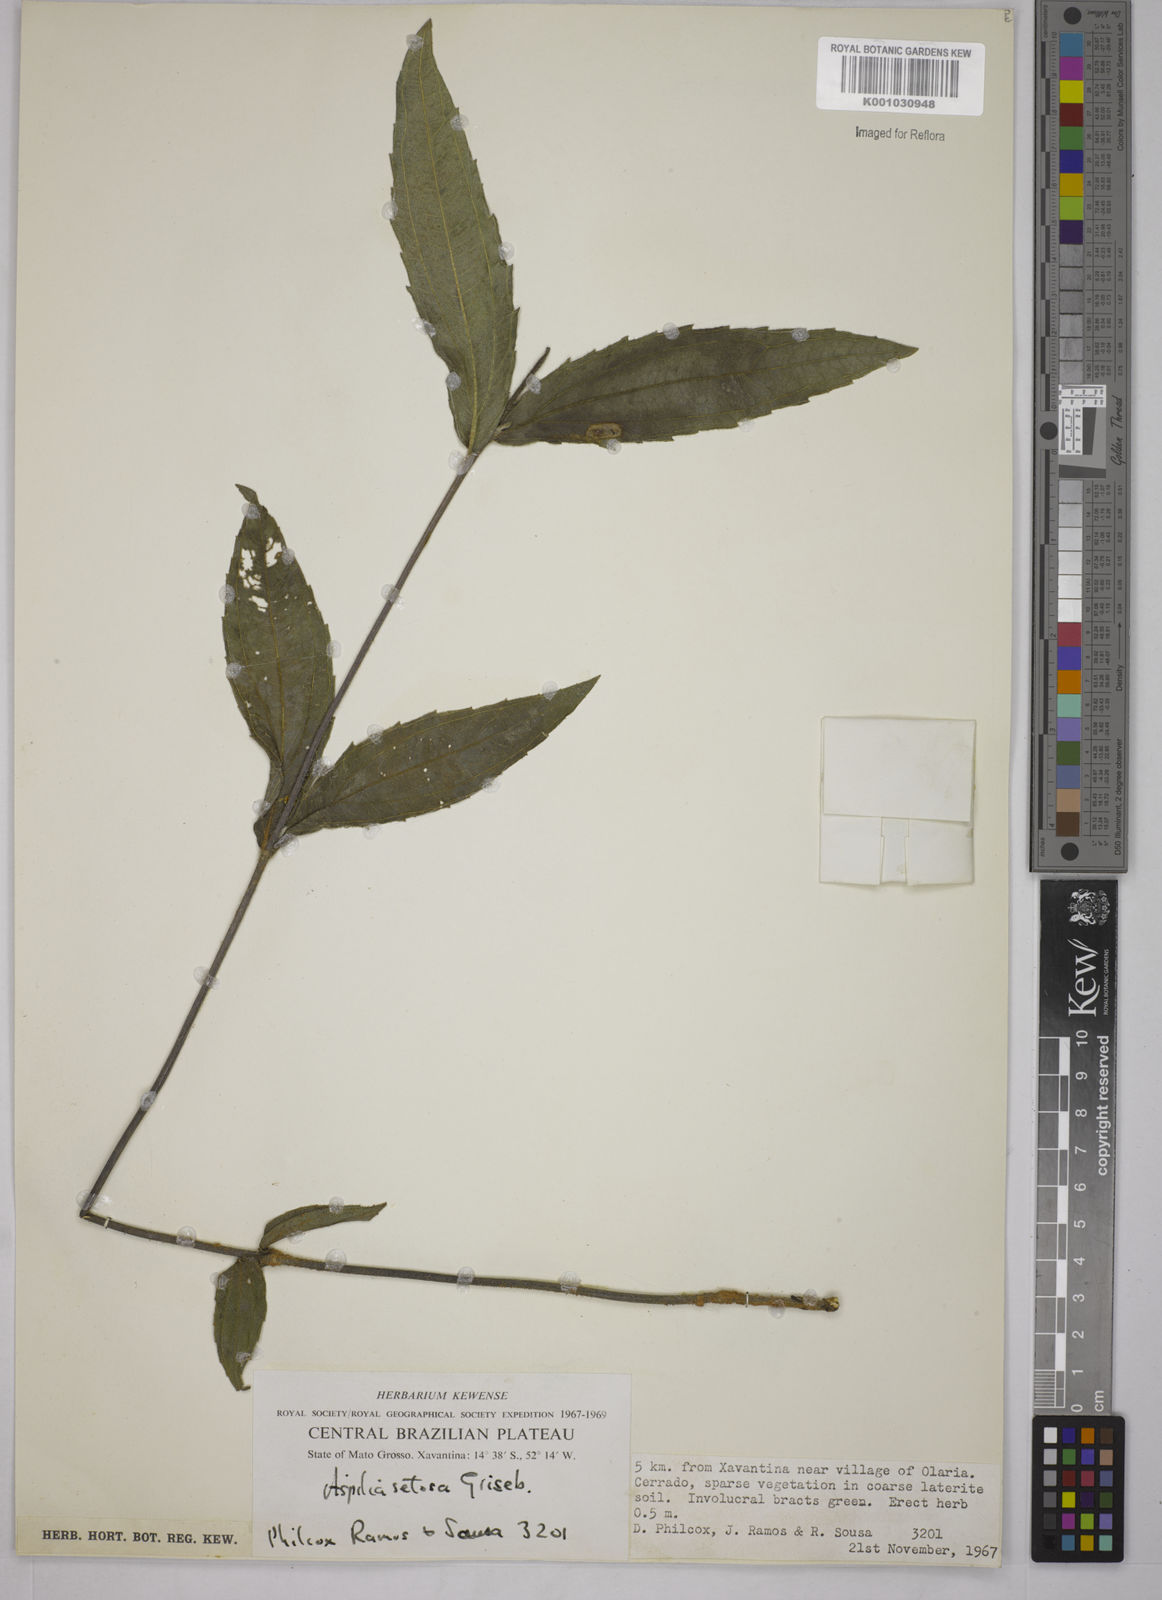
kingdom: Plantae
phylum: Tracheophyta
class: Magnoliopsida
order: Asterales
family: Asteraceae
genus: Aspilia
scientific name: Aspilia
